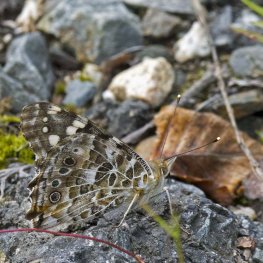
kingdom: Animalia
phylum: Arthropoda
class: Insecta
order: Lepidoptera
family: Nymphalidae
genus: Vanessa
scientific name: Vanessa cardui
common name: Painted Lady
